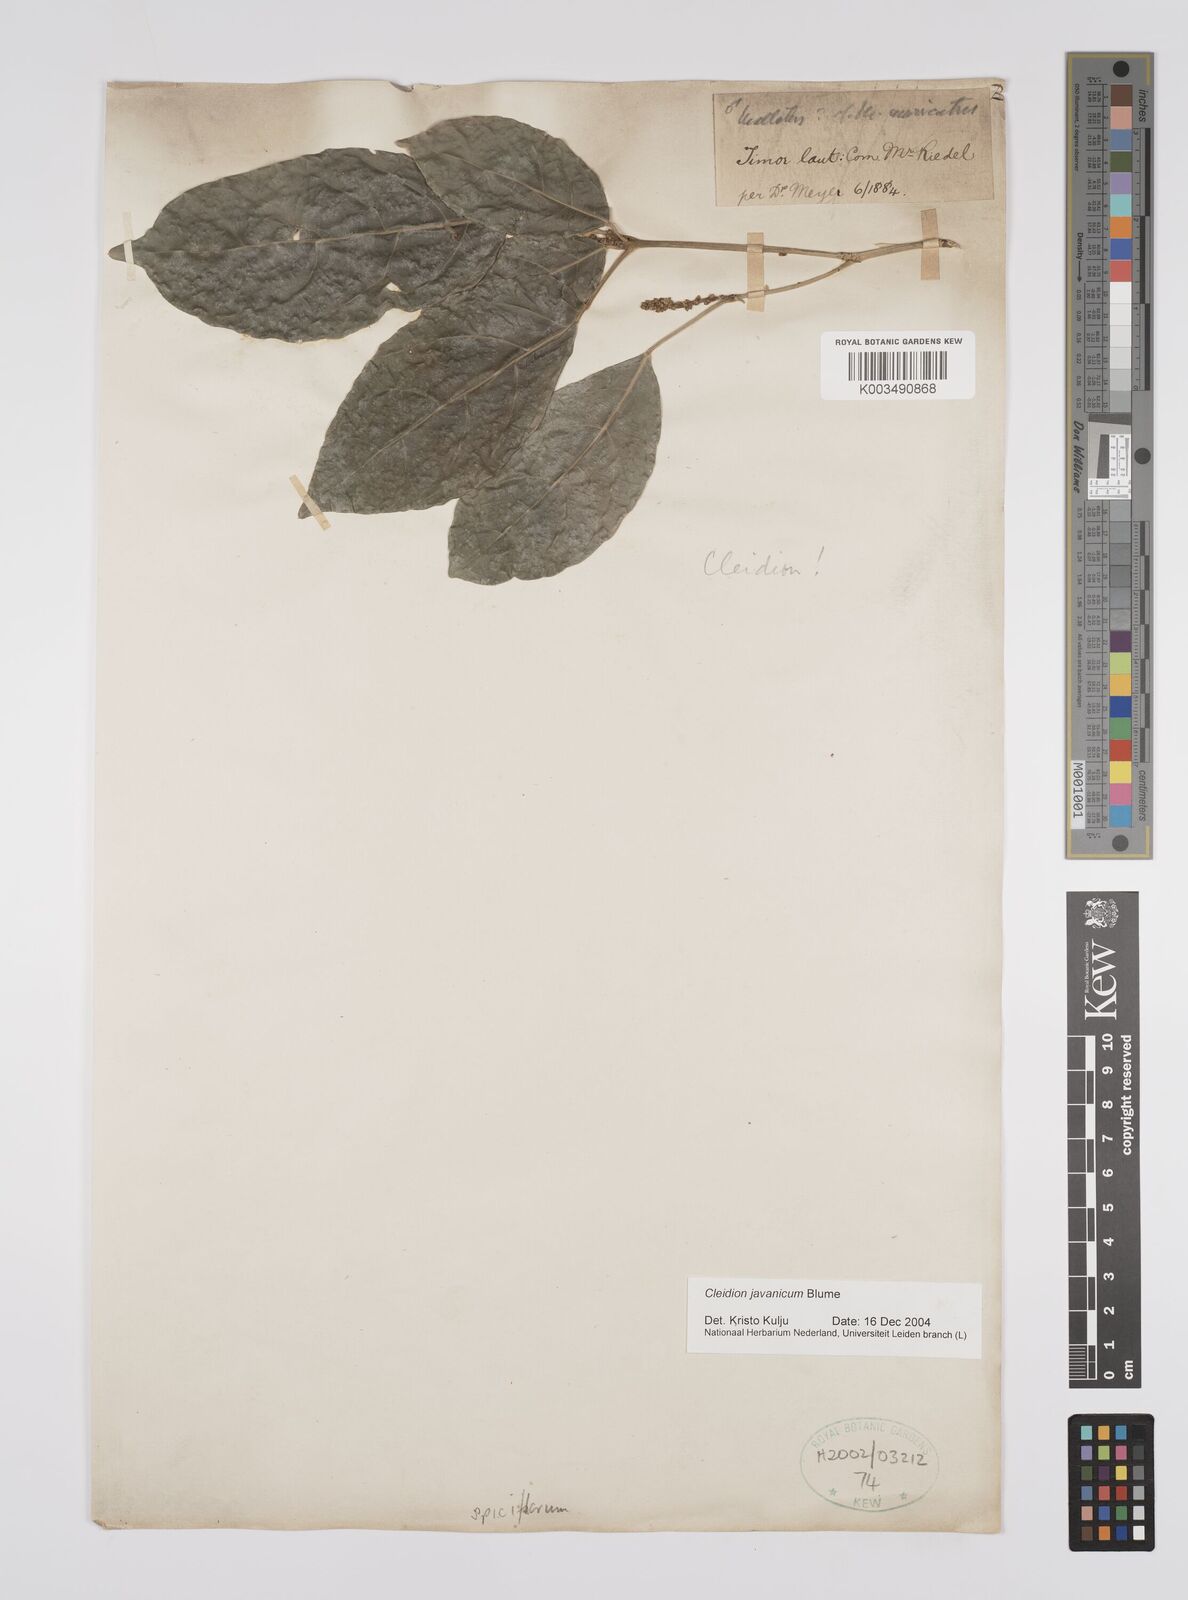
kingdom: Plantae
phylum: Tracheophyta
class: Magnoliopsida
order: Malpighiales
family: Euphorbiaceae
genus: Acalypha
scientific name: Acalypha spiciflora
